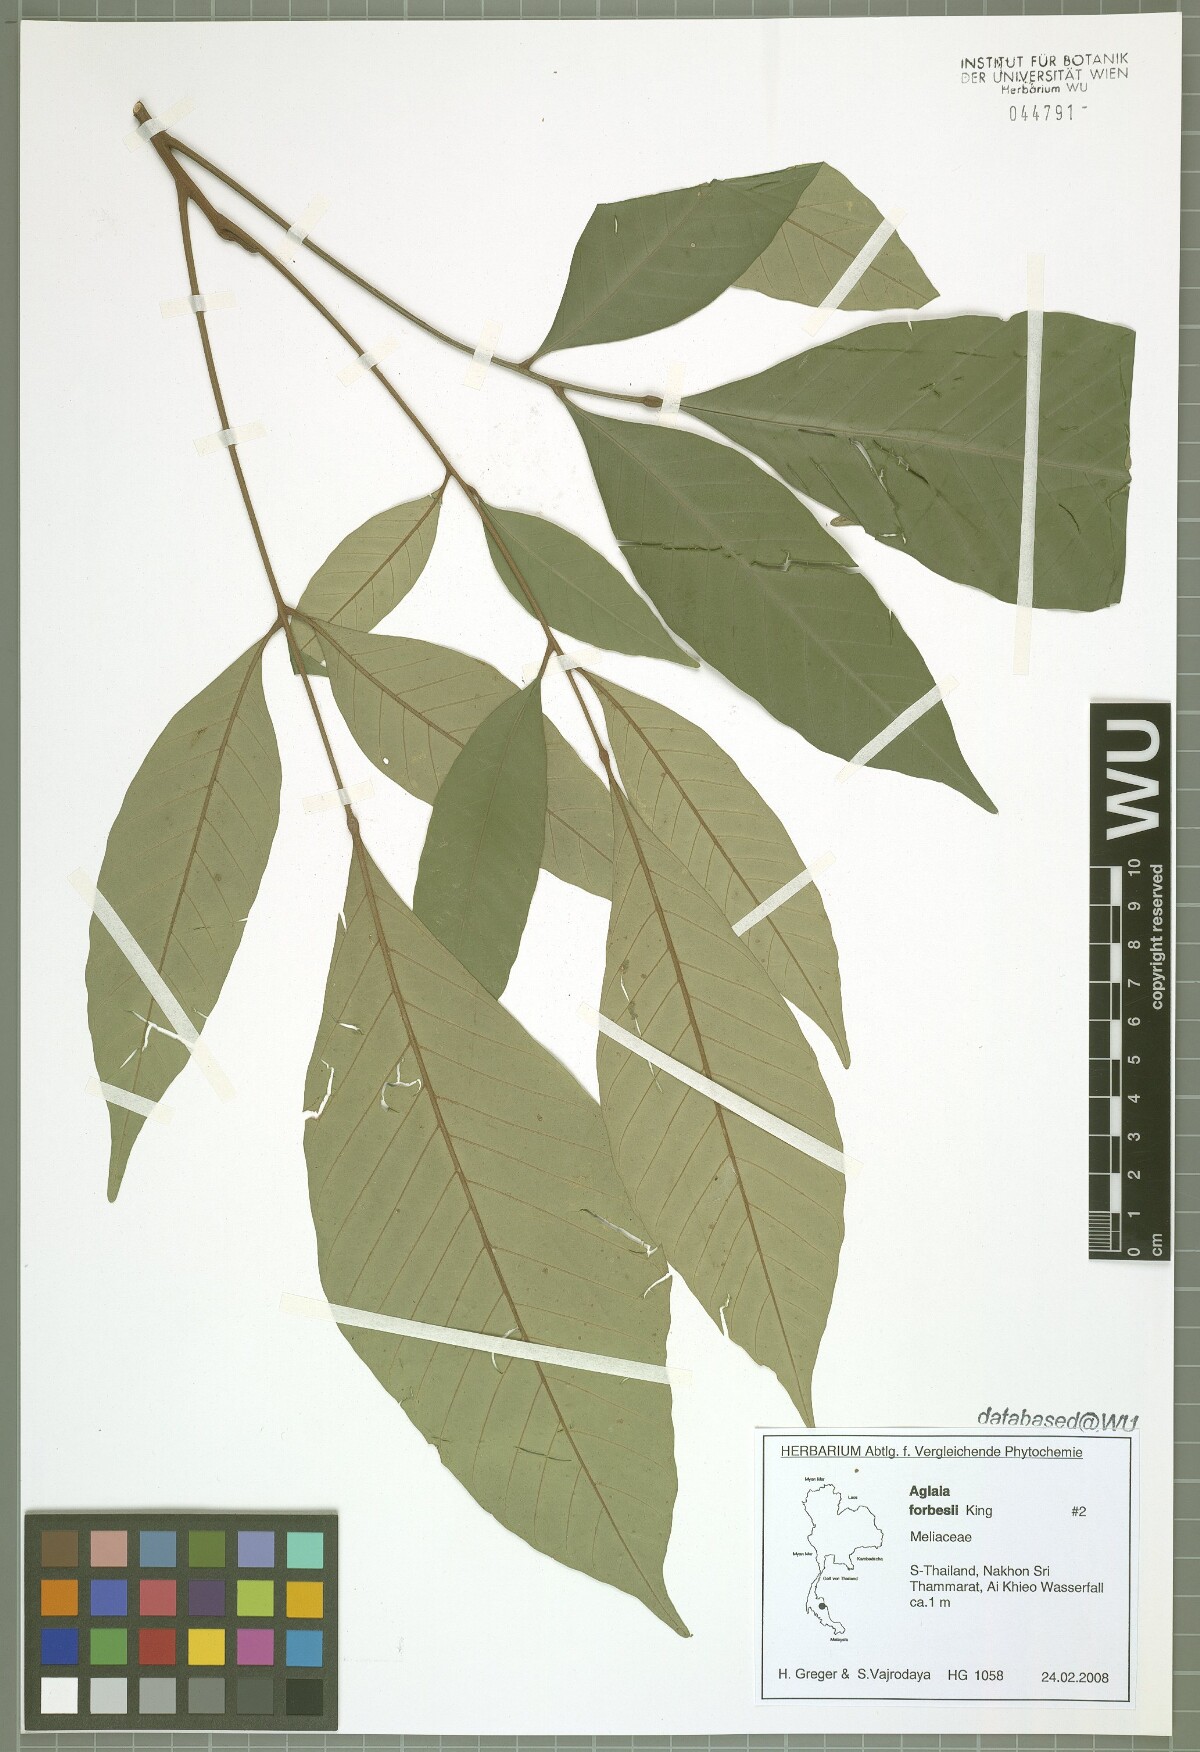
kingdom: Plantae
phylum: Tracheophyta
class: Magnoliopsida
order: Sapindales
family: Meliaceae
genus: Aglaia
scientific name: Aglaia forbesii
